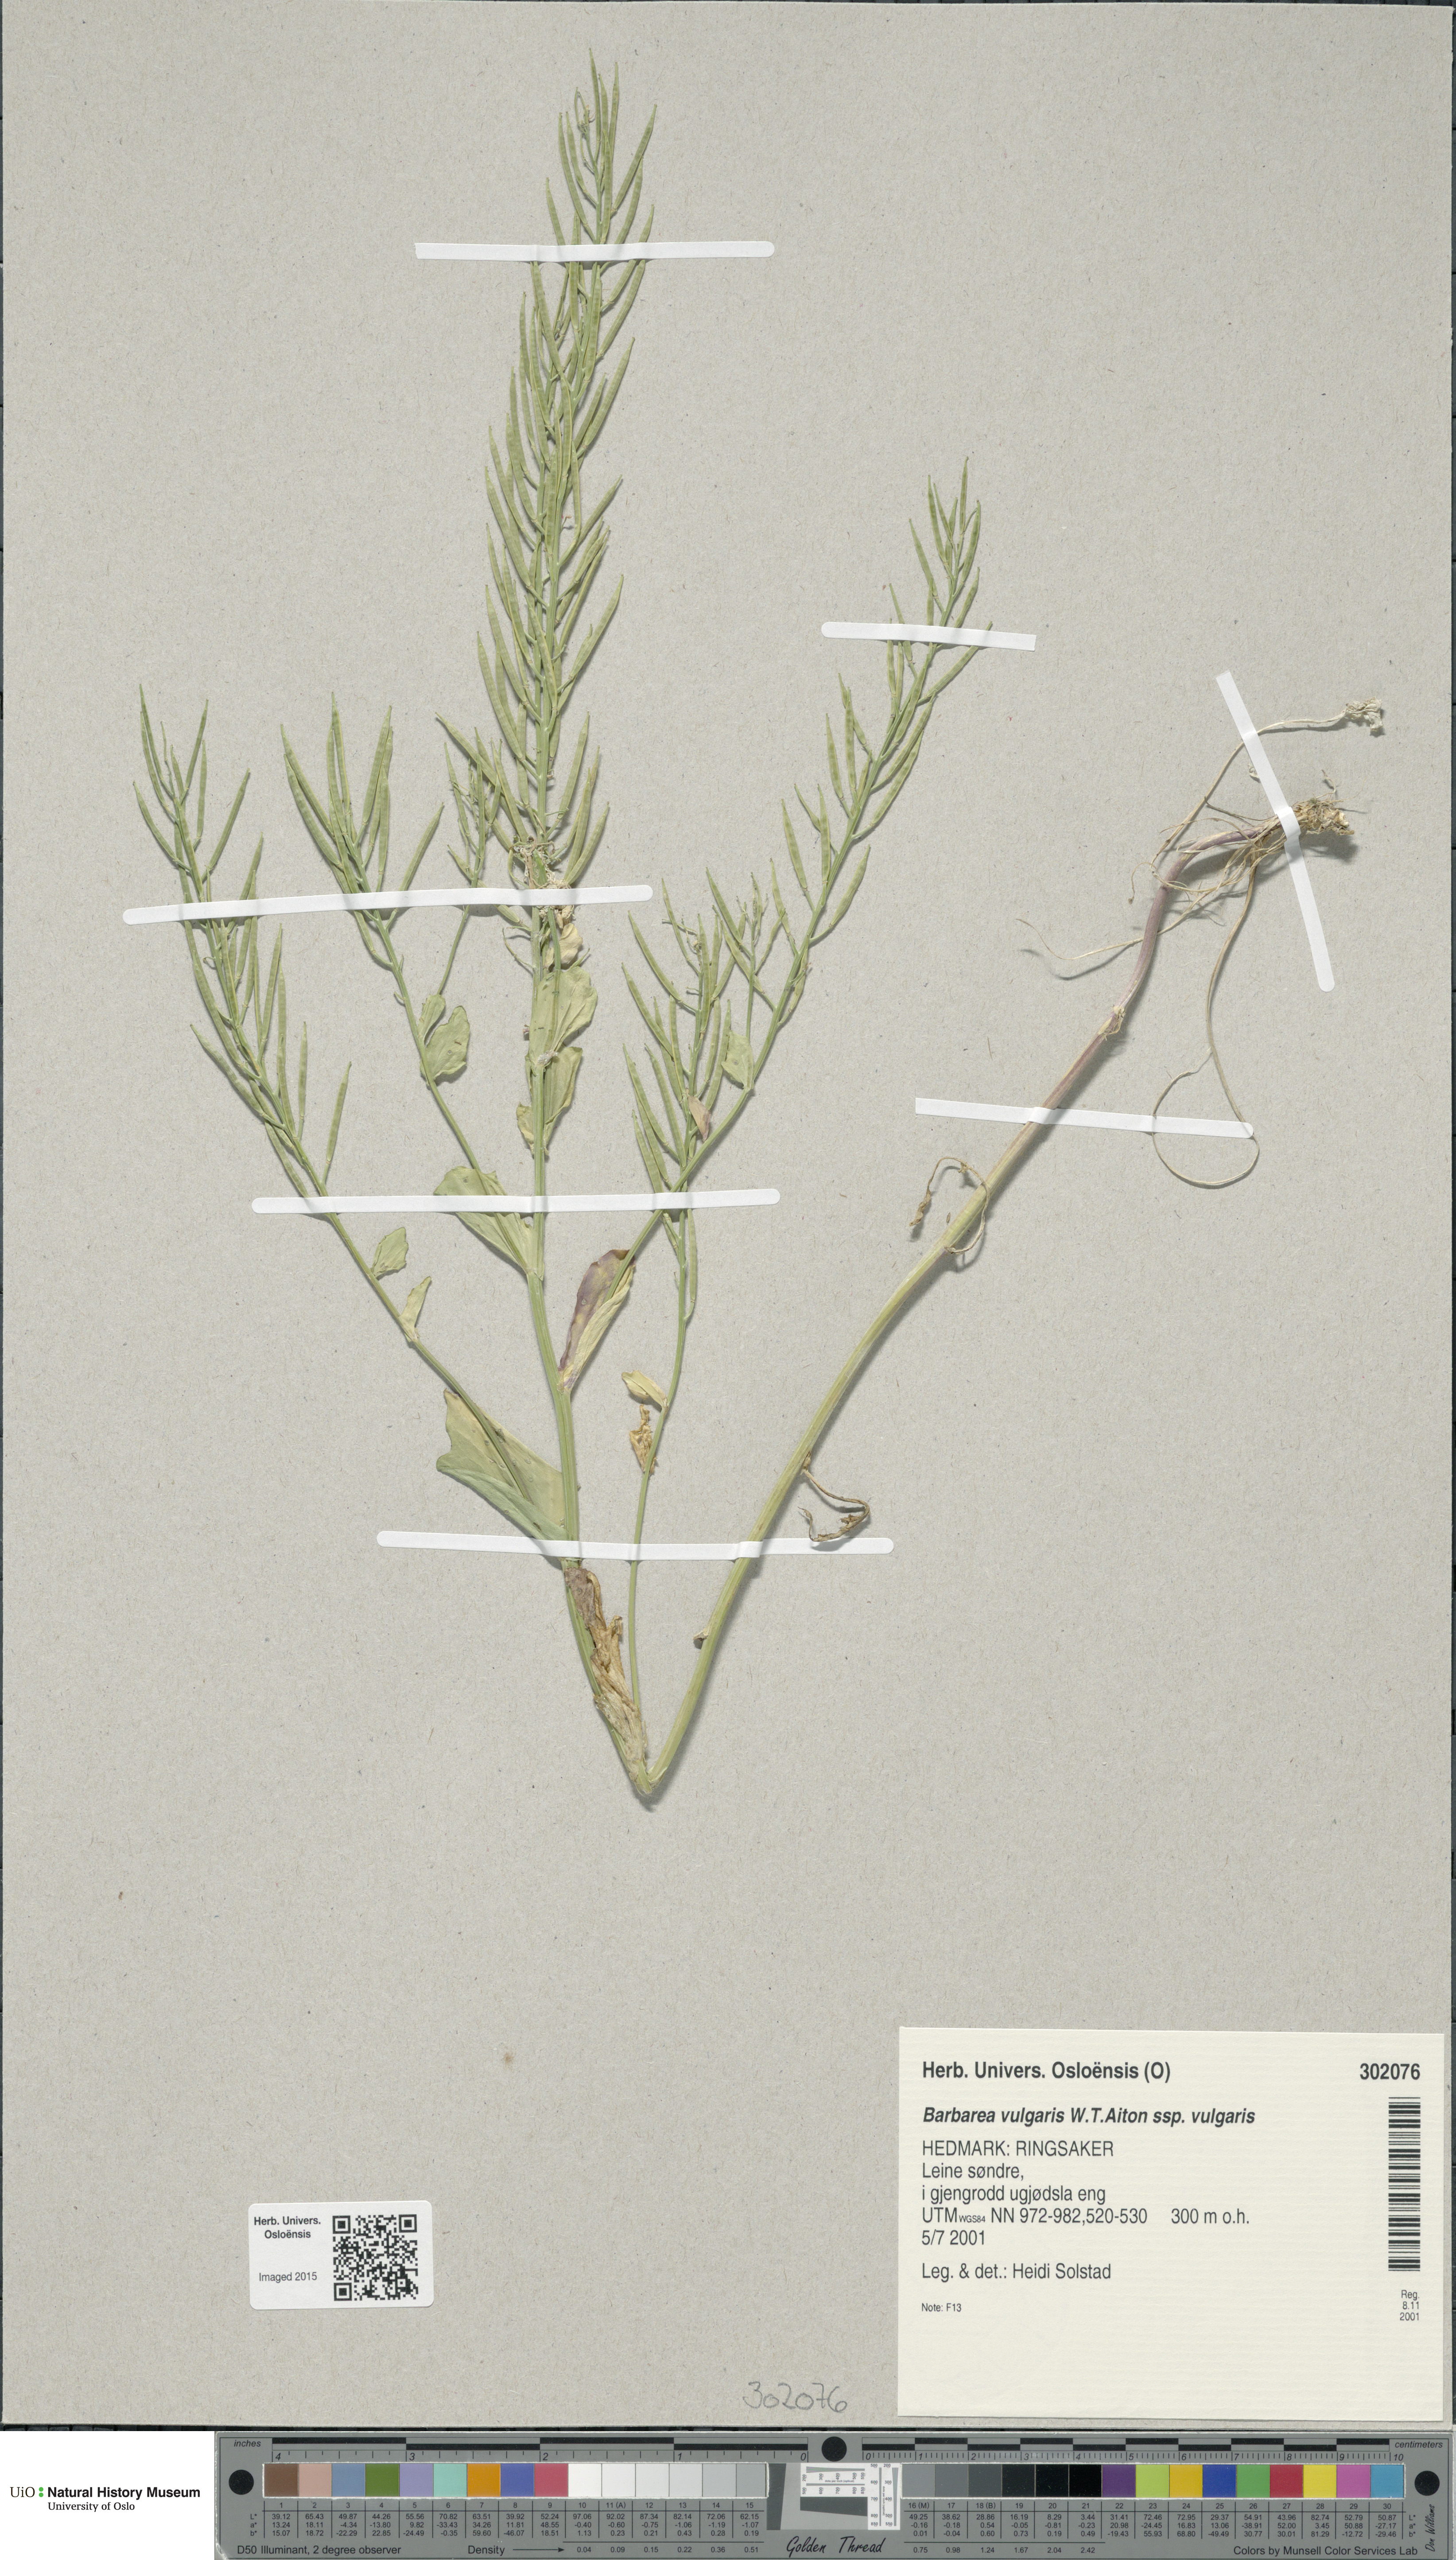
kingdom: Plantae
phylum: Tracheophyta
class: Magnoliopsida
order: Brassicales
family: Brassicaceae
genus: Barbarea
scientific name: Barbarea vulgaris
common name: Cressy-greens
